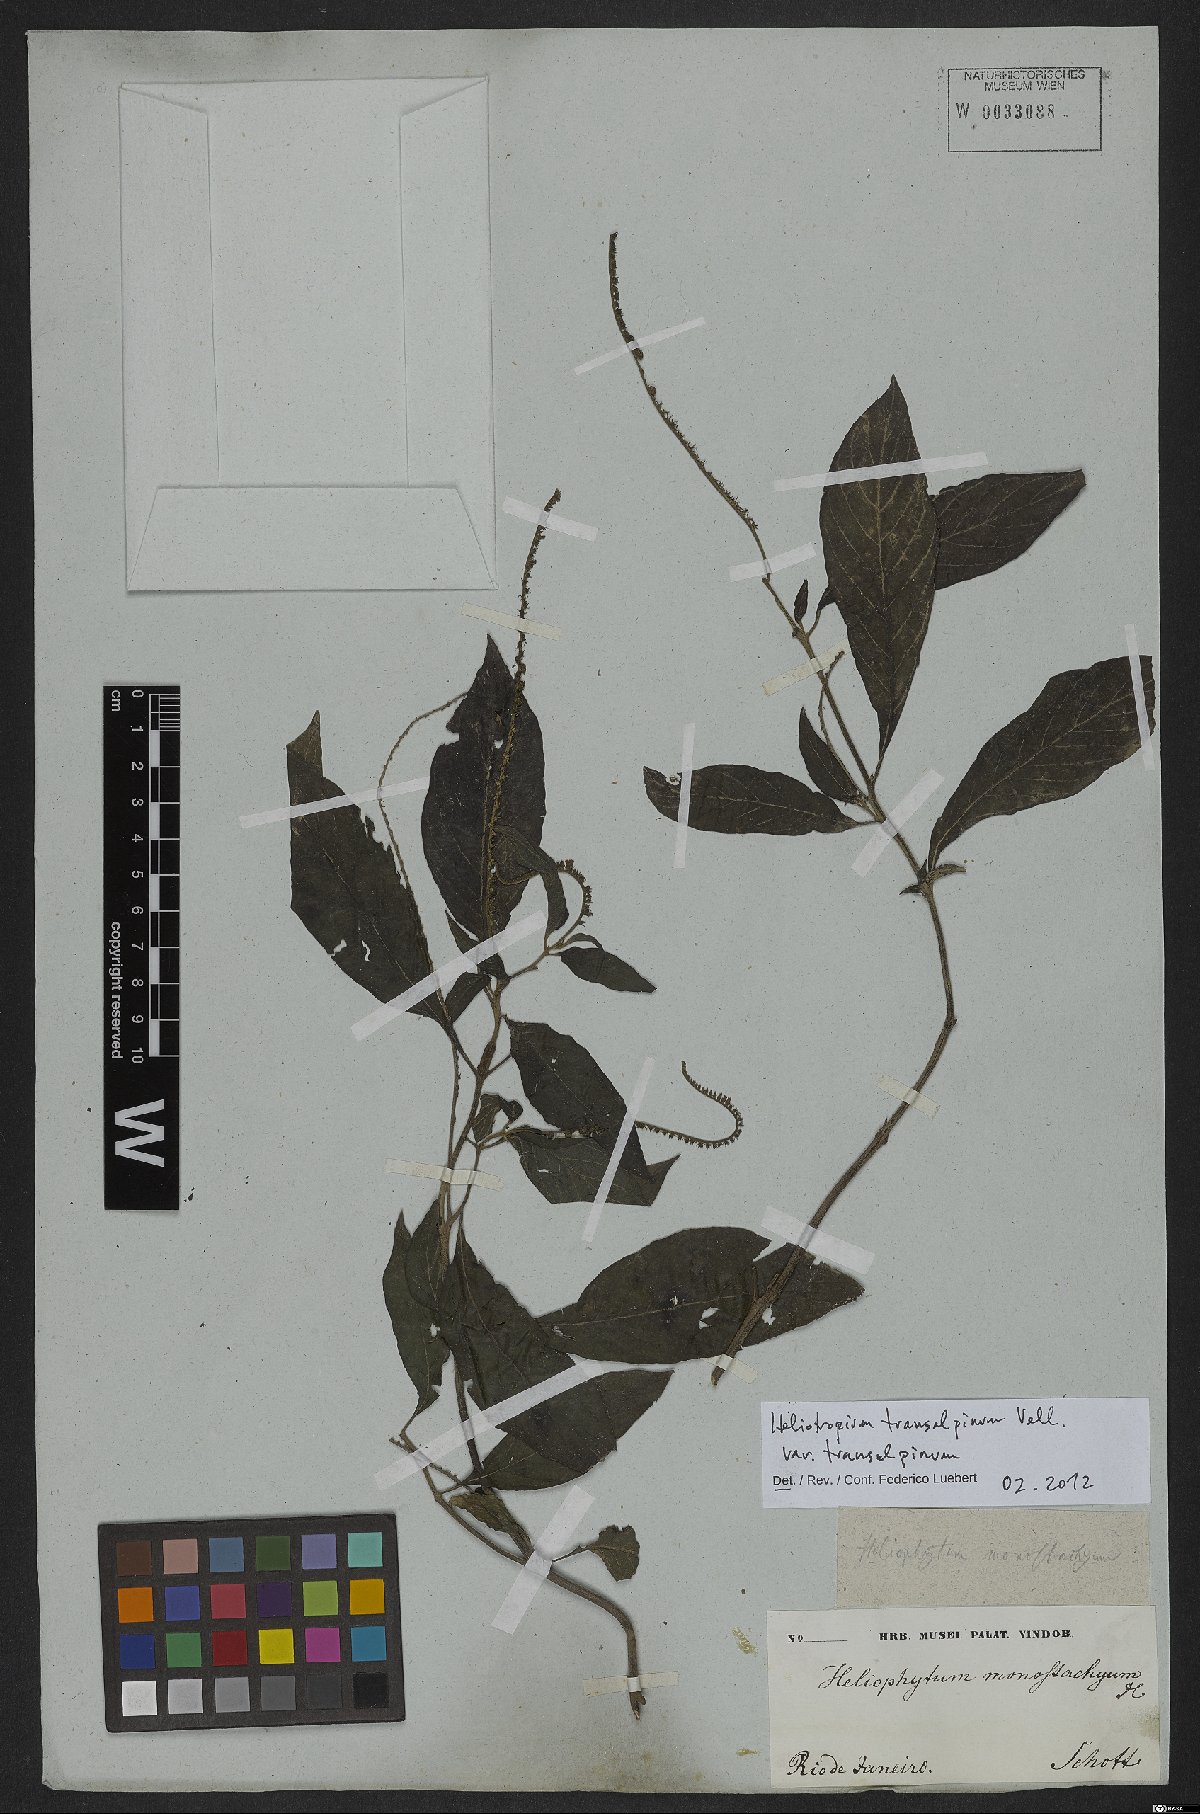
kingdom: Plantae
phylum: Tracheophyta
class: Magnoliopsida
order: Boraginales
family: Heliotropiaceae
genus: Heliotropium
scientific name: Heliotropium transalpinum
